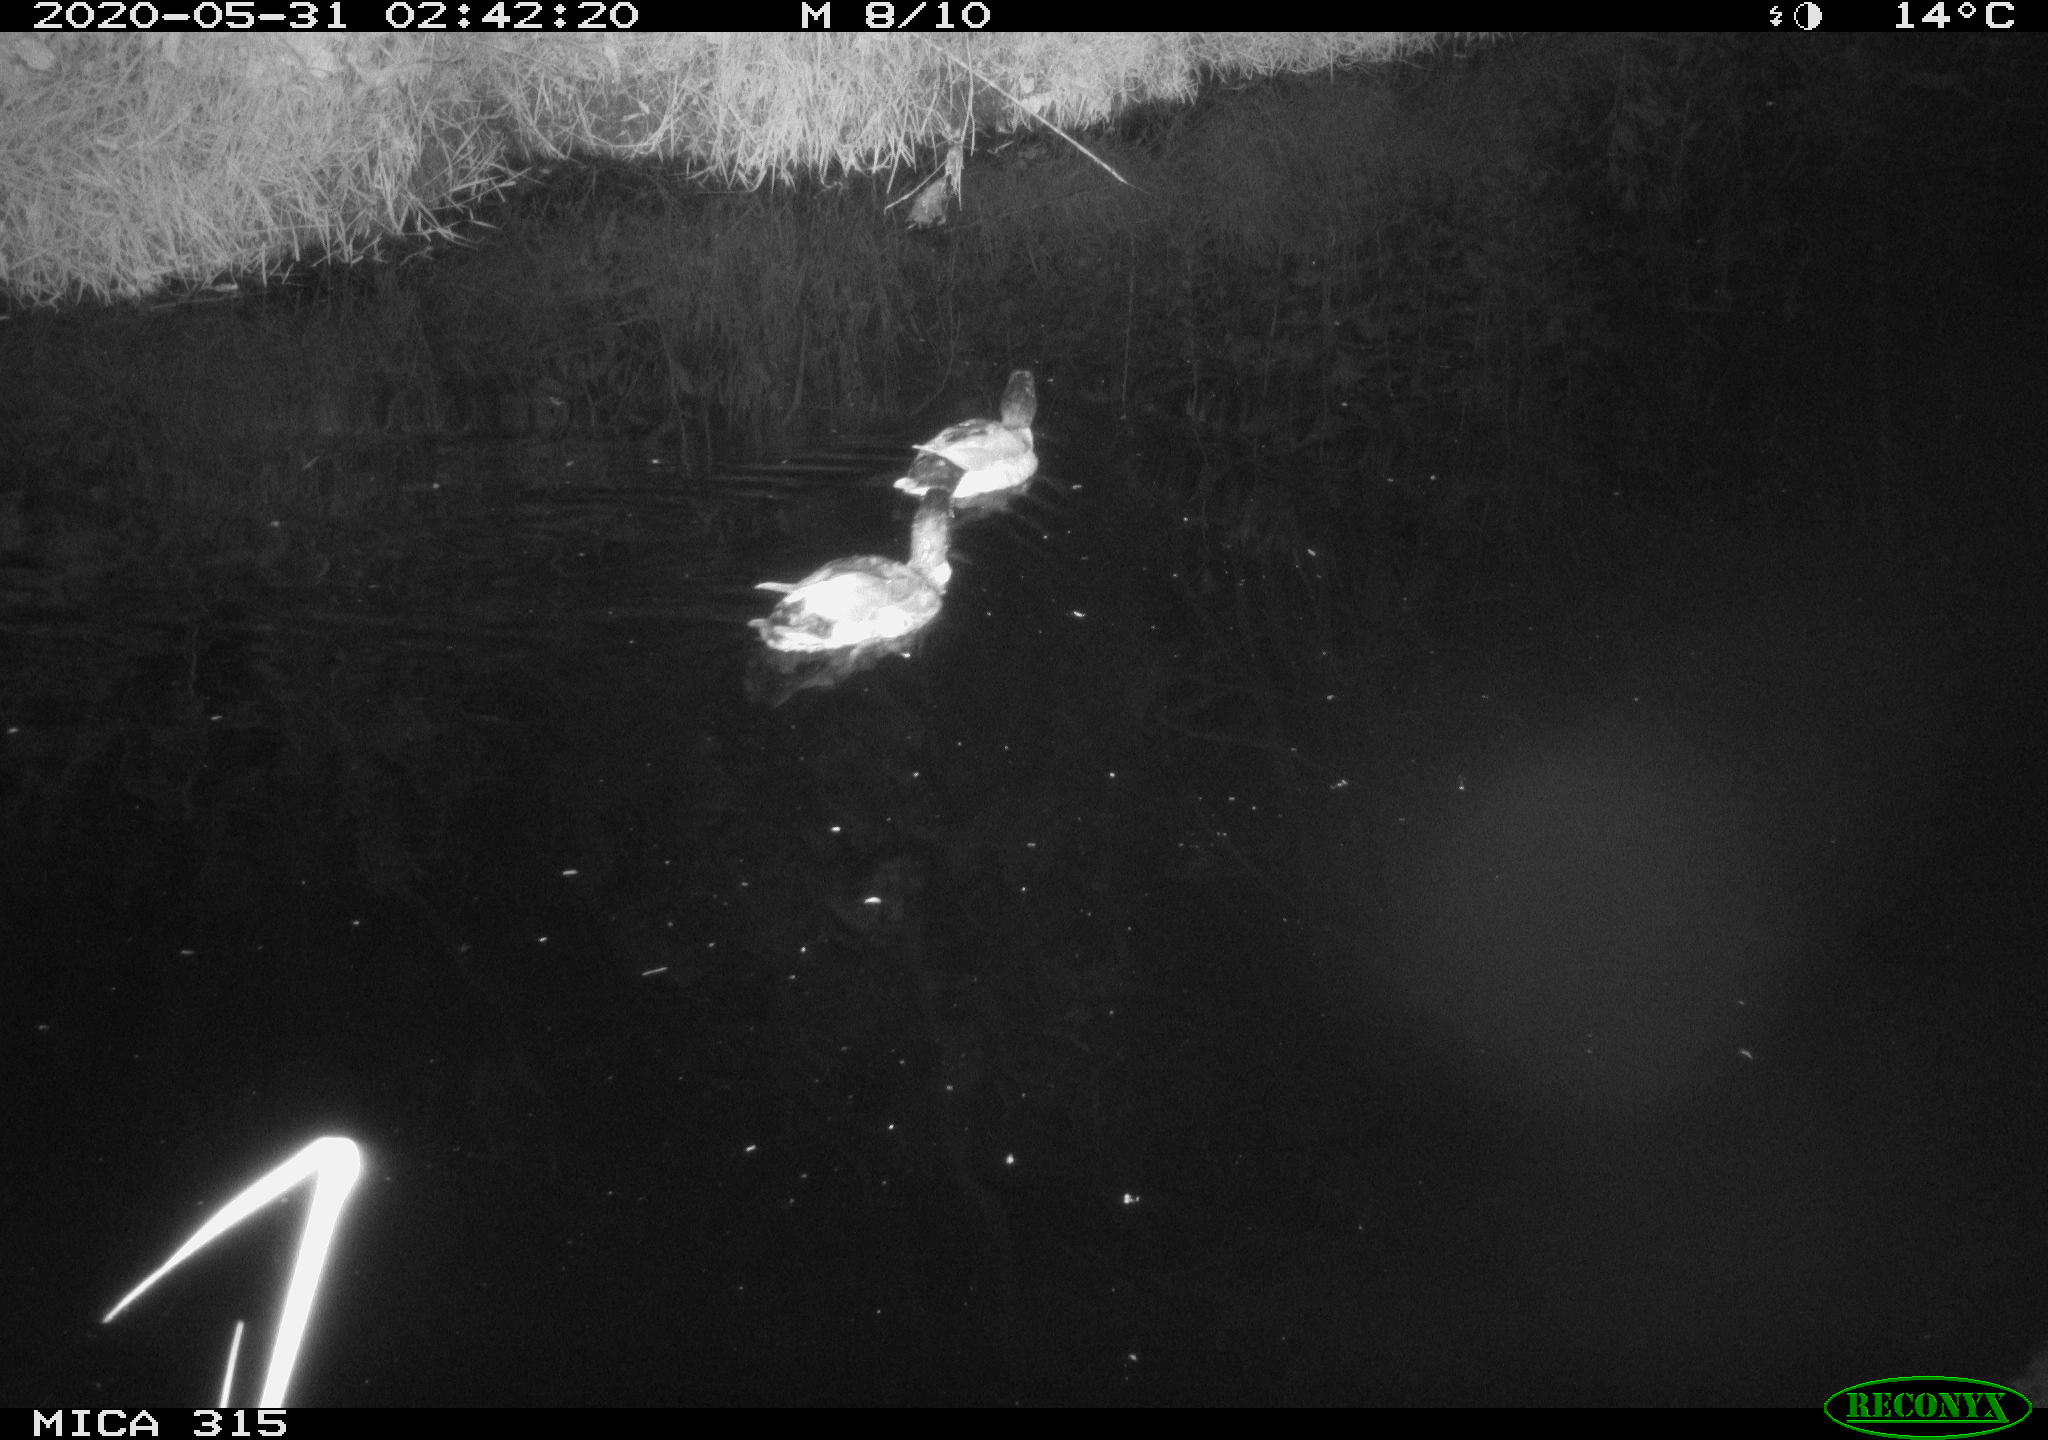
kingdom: Animalia
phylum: Chordata
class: Aves
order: Anseriformes
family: Anatidae
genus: Anas
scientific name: Anas platyrhynchos
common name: Mallard
